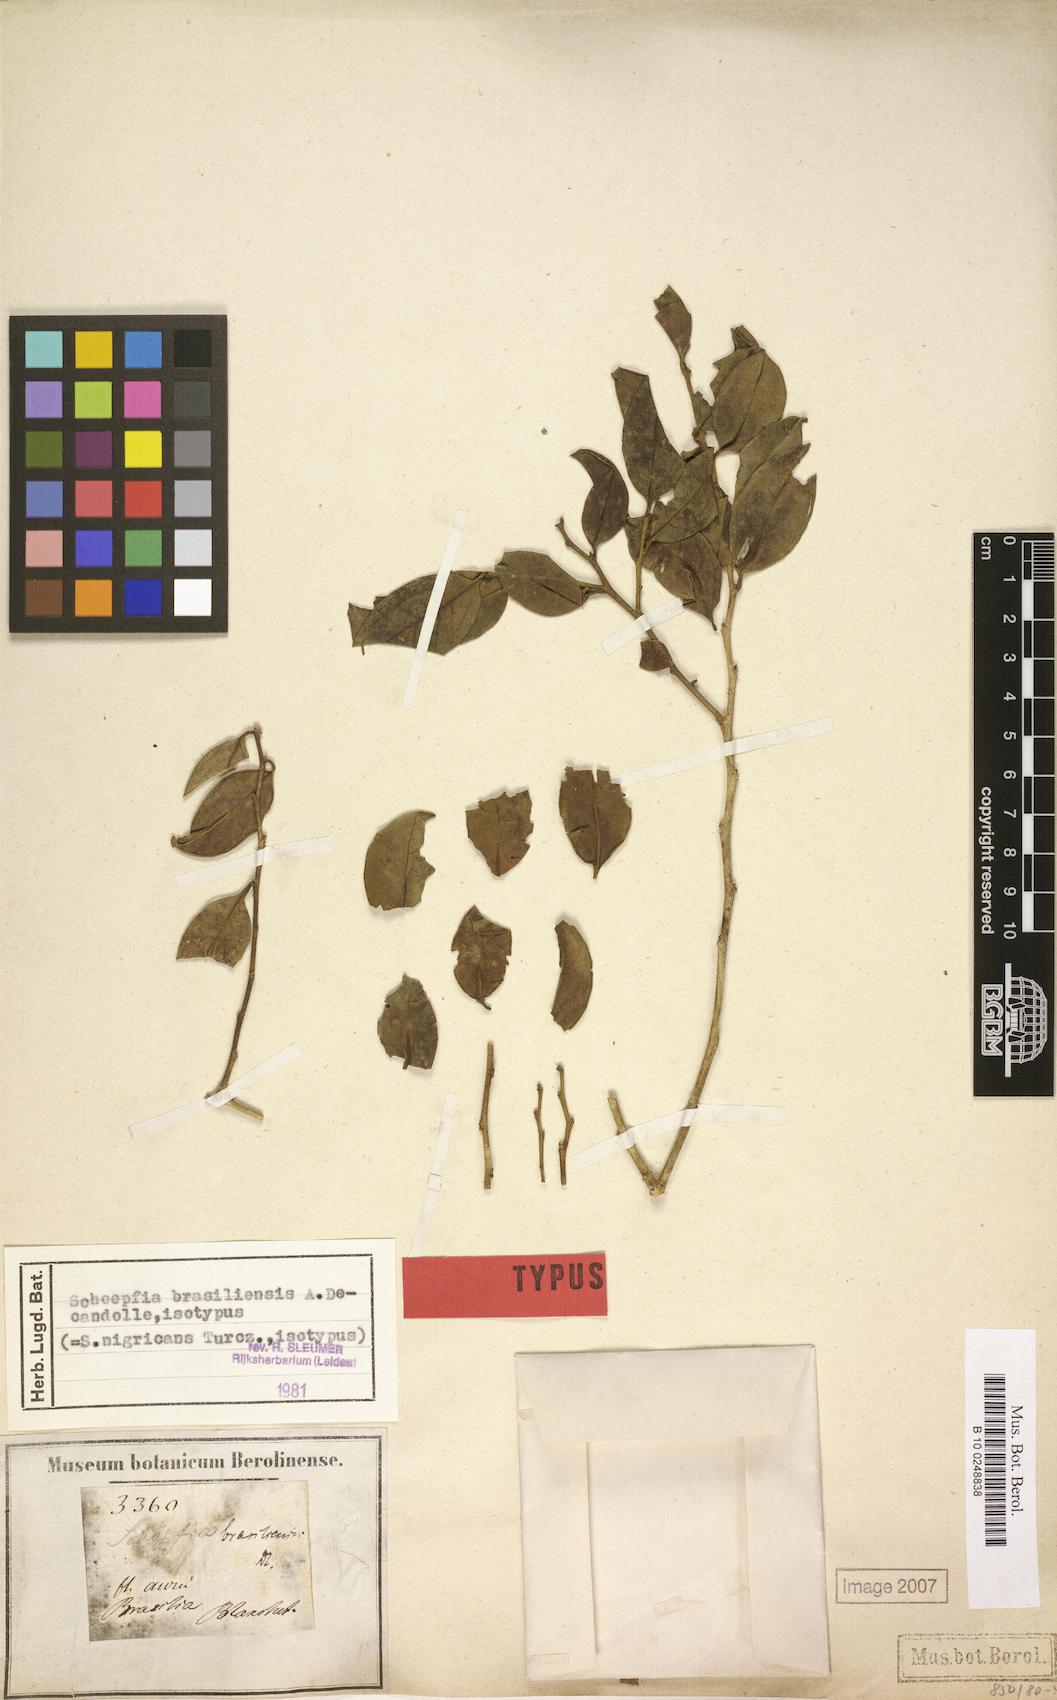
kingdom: Plantae
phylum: Tracheophyta
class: Magnoliopsida
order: Santalales
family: Schoepfiaceae
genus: Schoepfia
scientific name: Schoepfia brasiliensis
